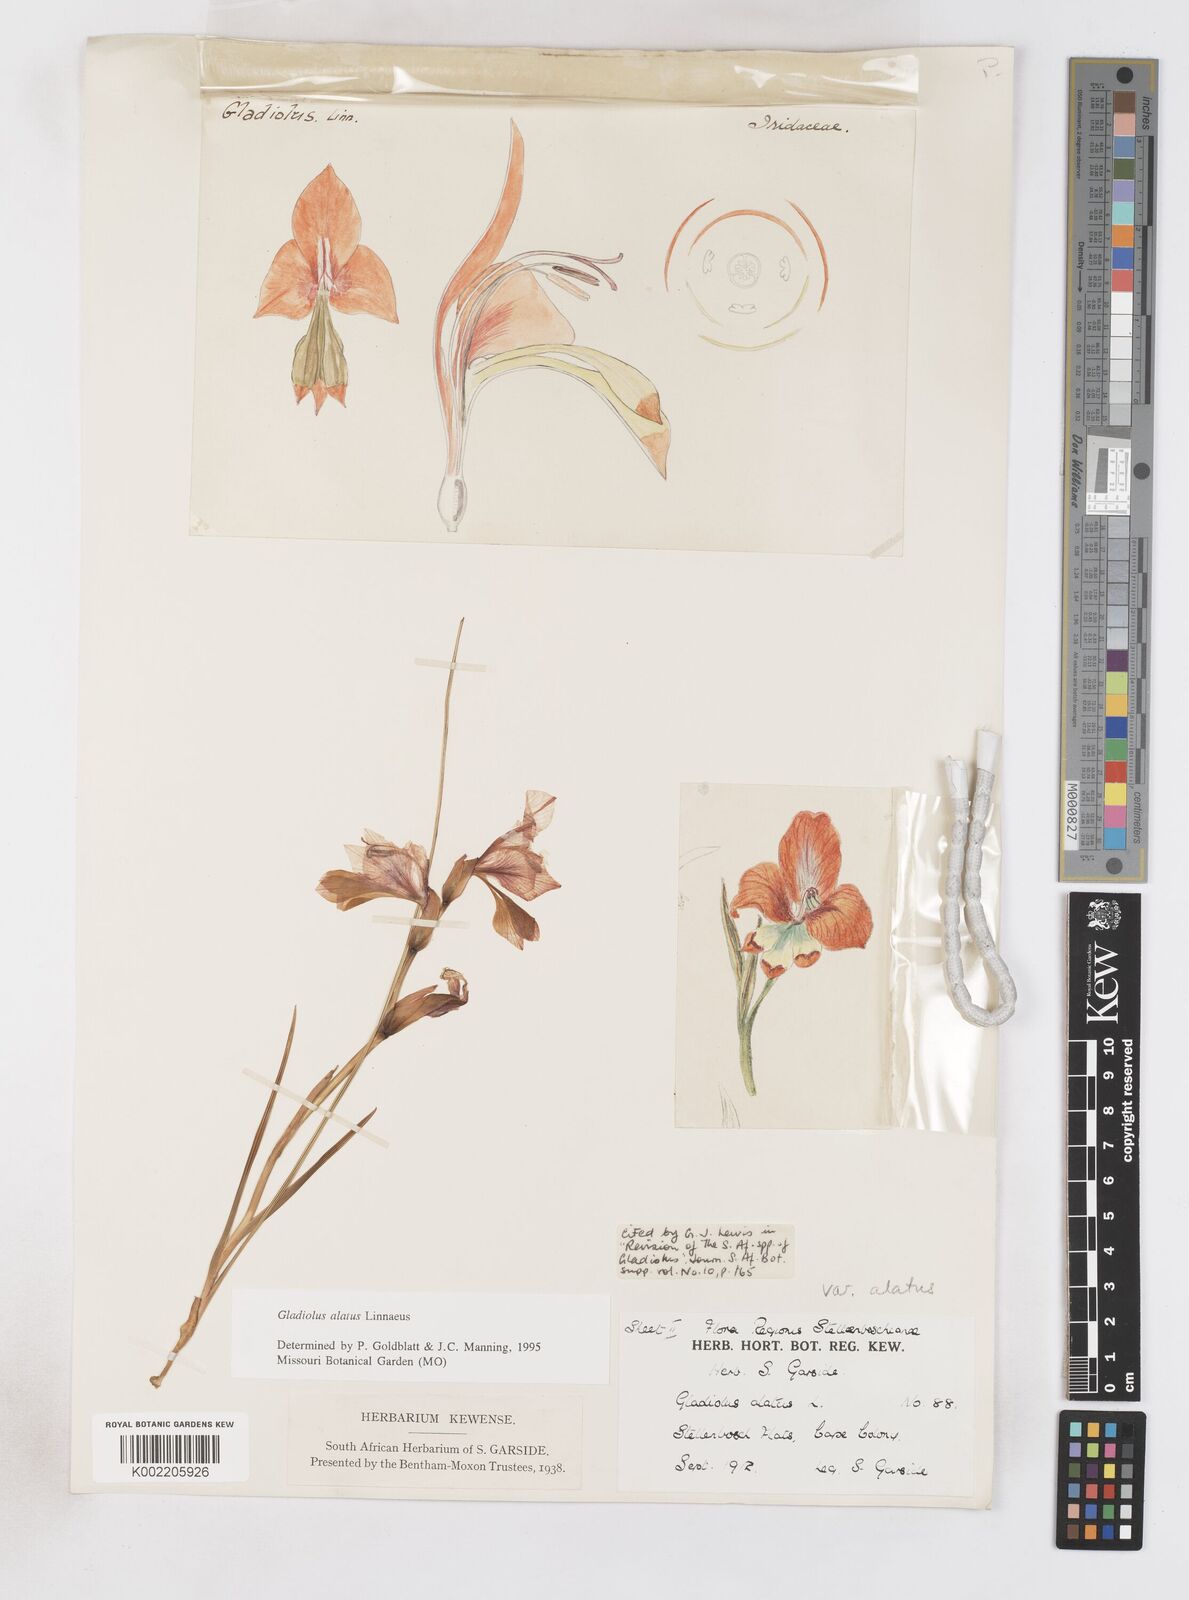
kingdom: Plantae
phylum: Tracheophyta
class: Liliopsida
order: Asparagales
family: Iridaceae
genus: Gladiolus
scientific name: Gladiolus alatus
